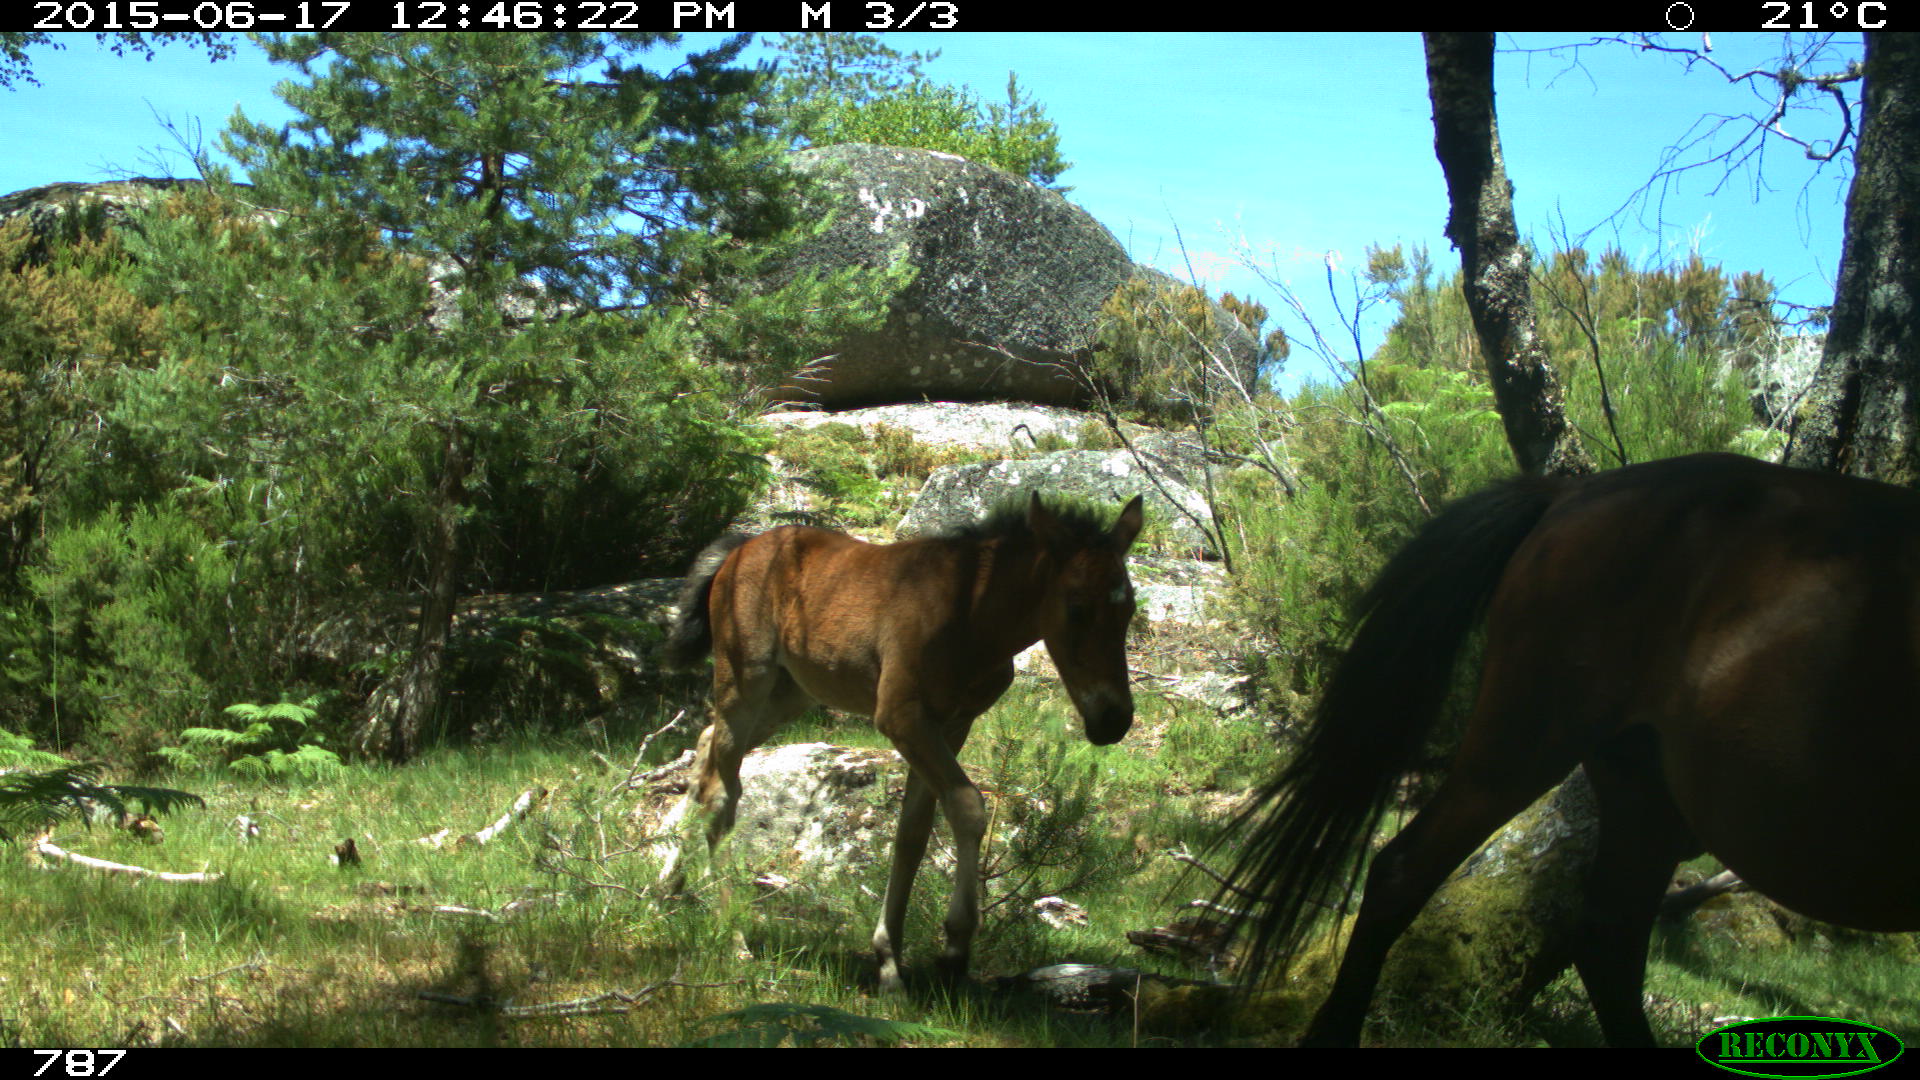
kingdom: Animalia
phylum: Chordata
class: Mammalia
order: Perissodactyla
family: Equidae
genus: Equus
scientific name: Equus caballus
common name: Horse
